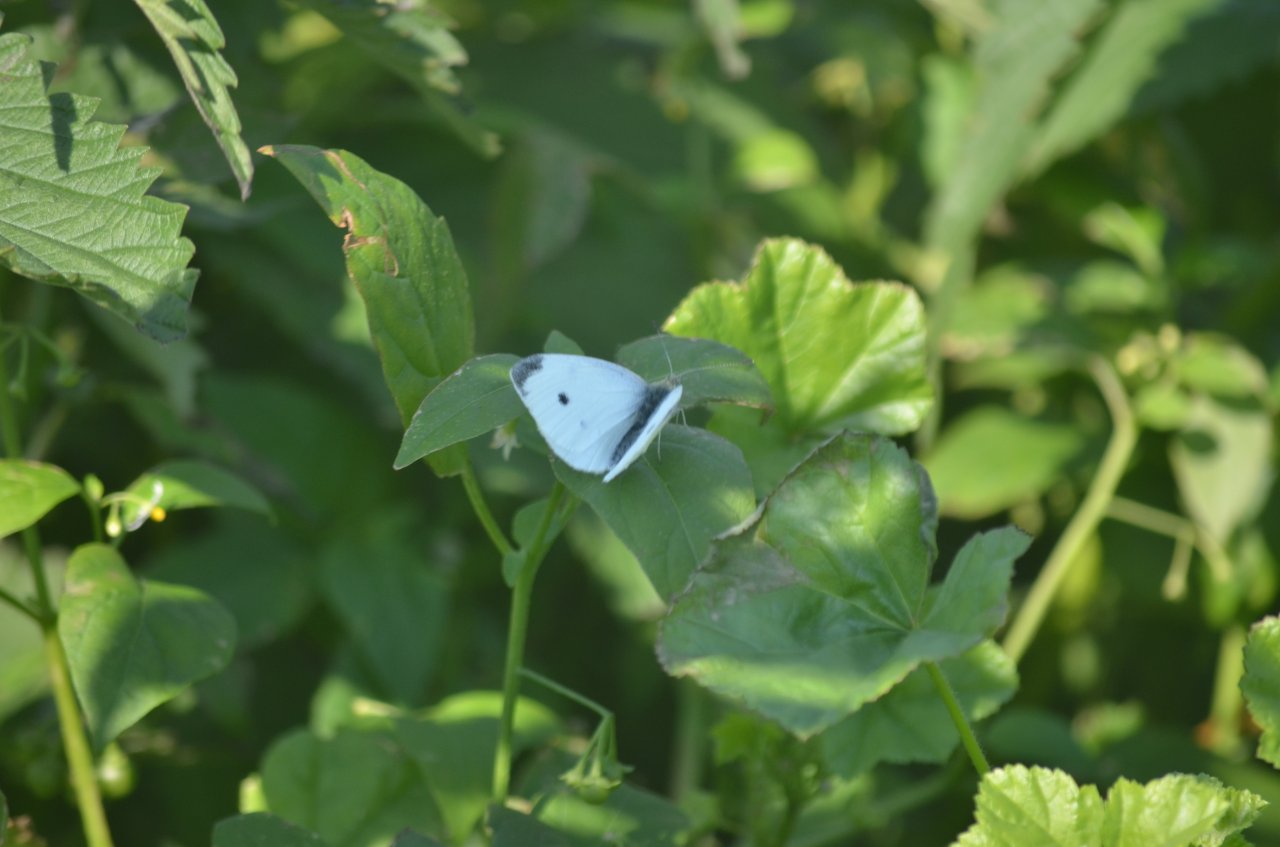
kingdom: Animalia
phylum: Arthropoda
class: Insecta
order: Lepidoptera
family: Pieridae
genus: Pieris
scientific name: Pieris rapae
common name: Cabbage White
